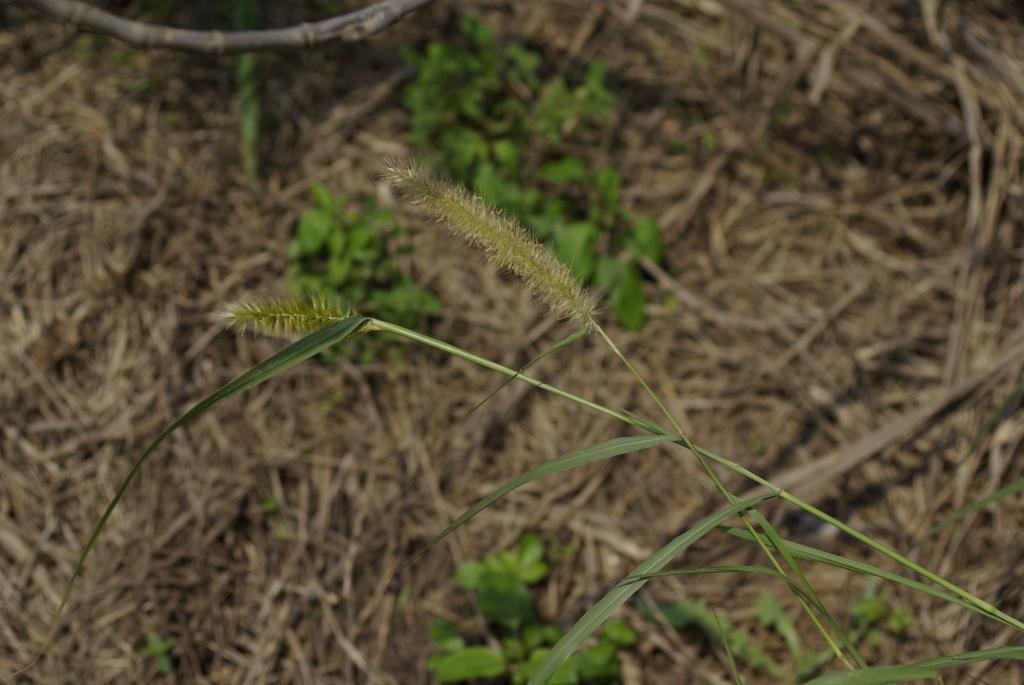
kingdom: Plantae
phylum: Tracheophyta
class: Liliopsida
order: Poales
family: Poaceae
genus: Cenchrus
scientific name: Cenchrus purpureus
